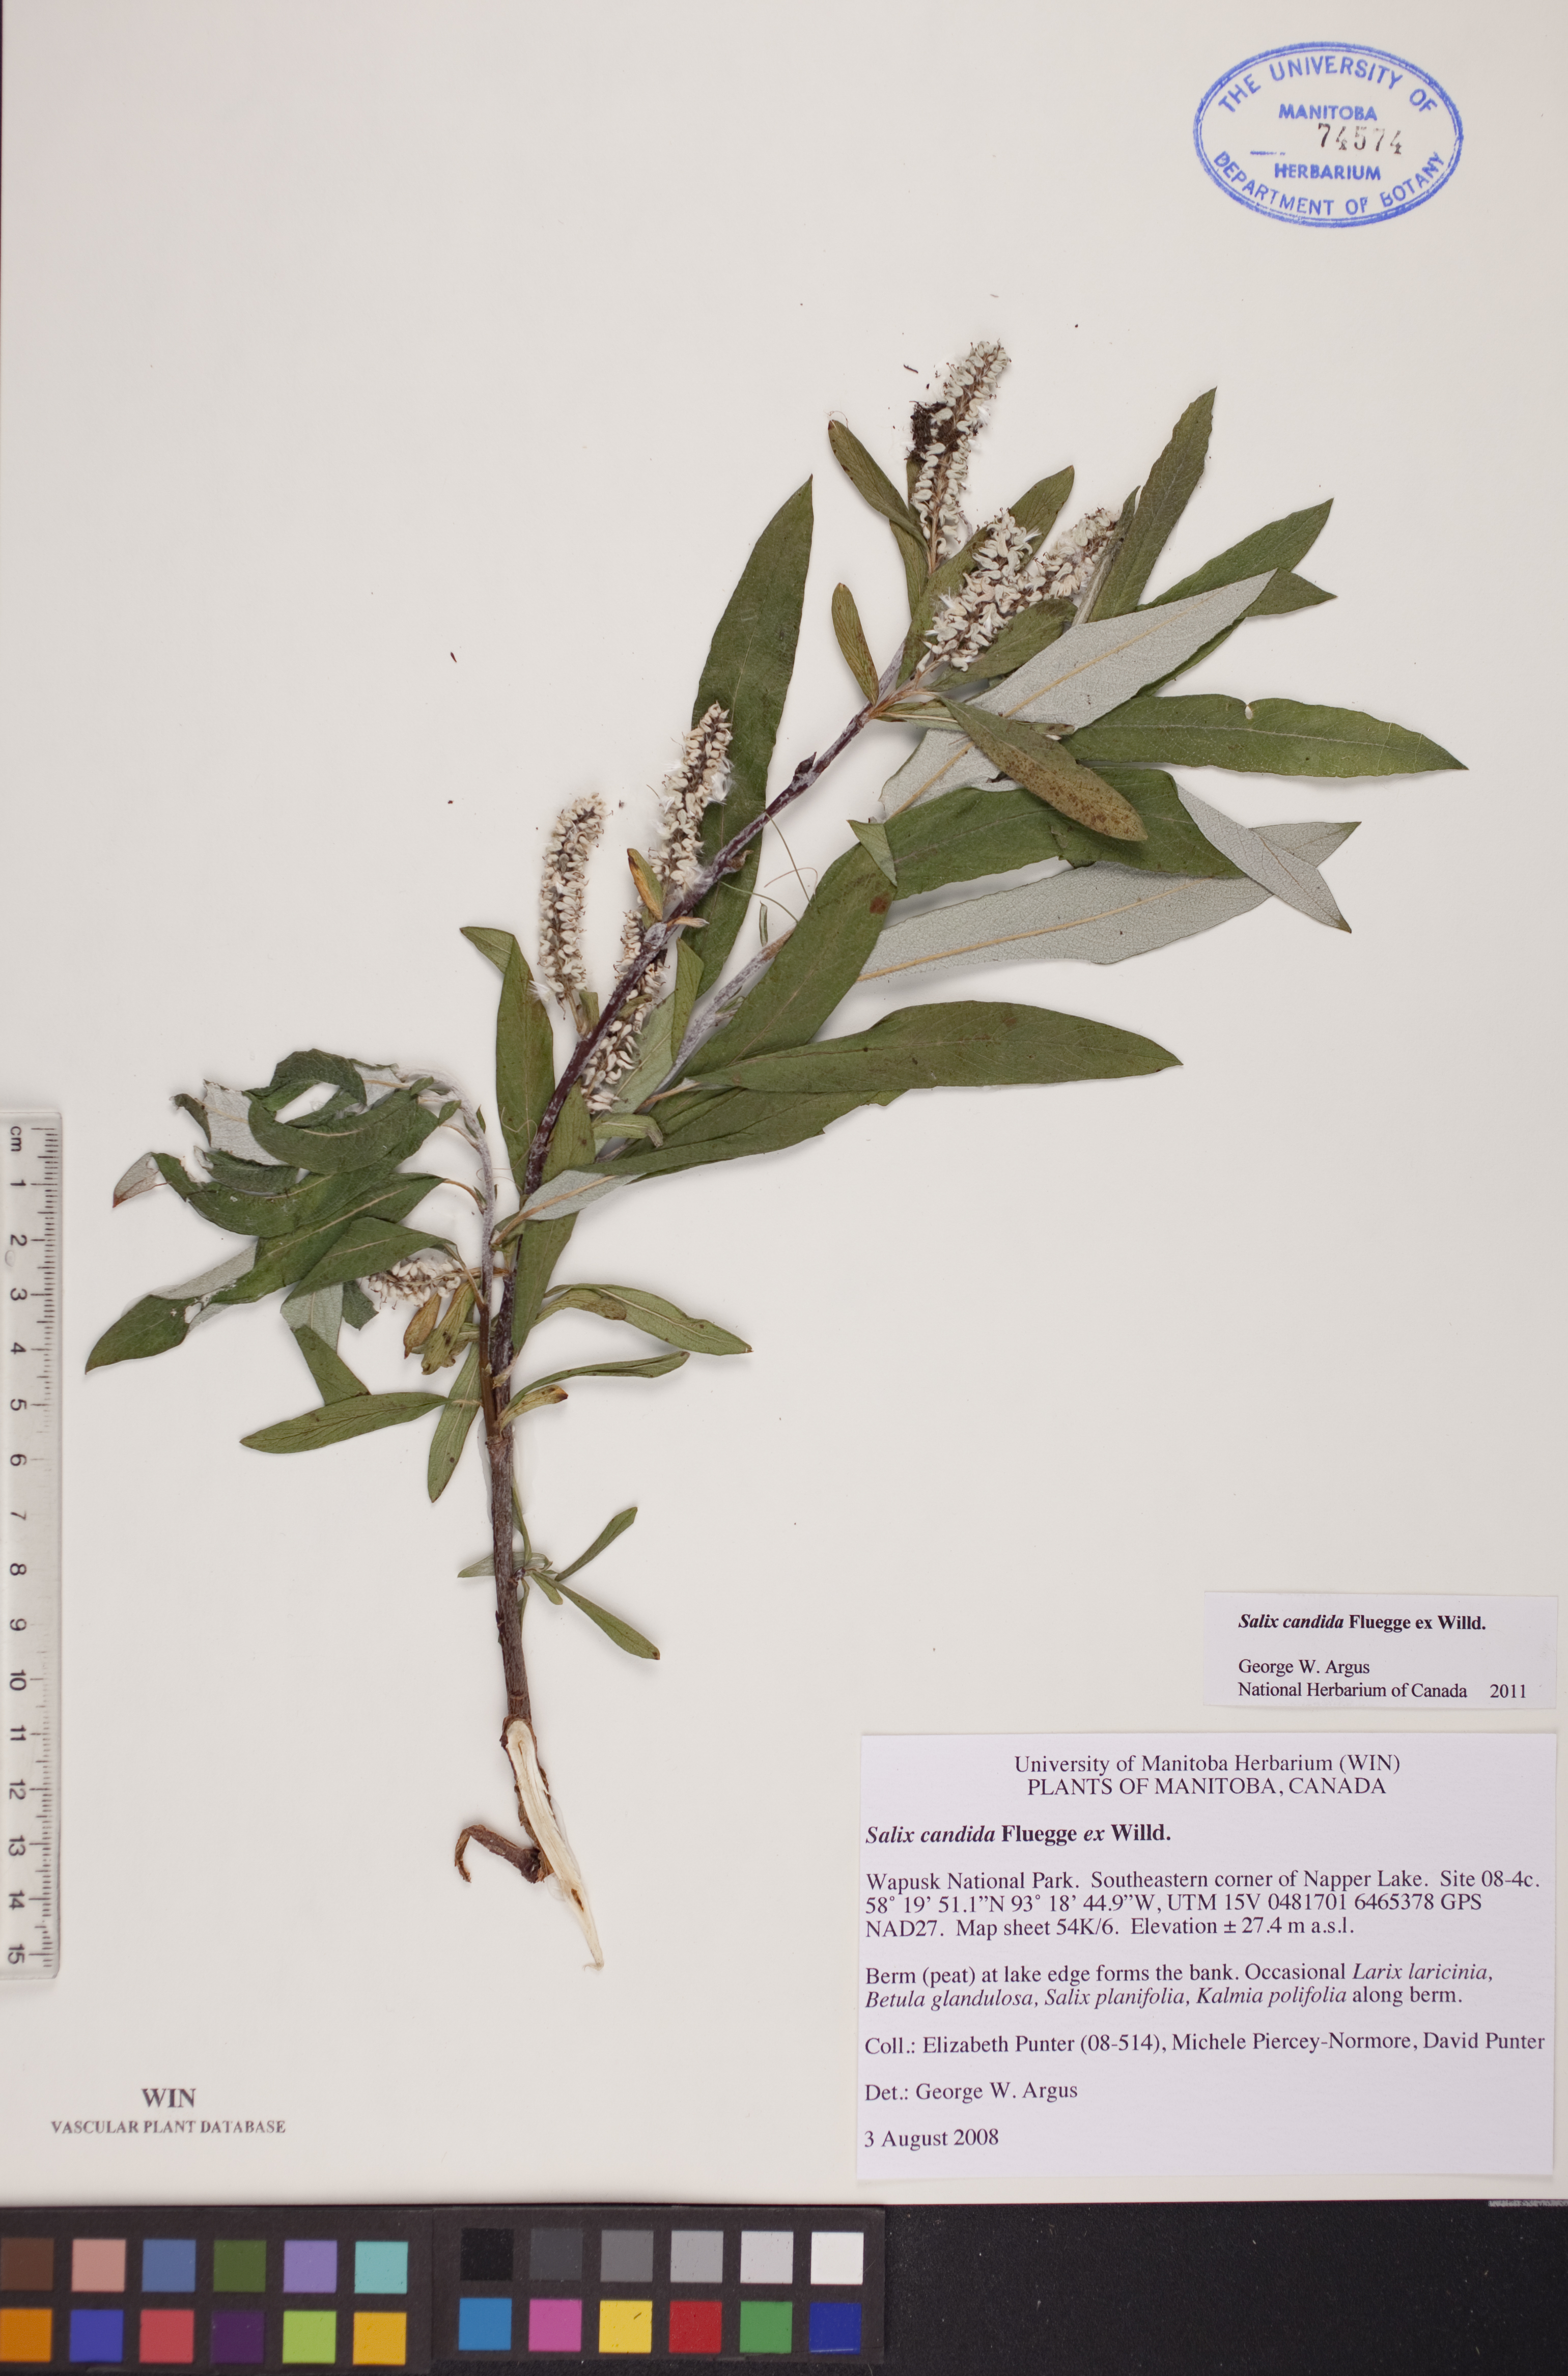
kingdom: Plantae
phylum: Tracheophyta
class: Magnoliopsida
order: Malpighiales
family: Salicaceae
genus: Salix
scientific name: Salix candida
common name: Hoary willow
